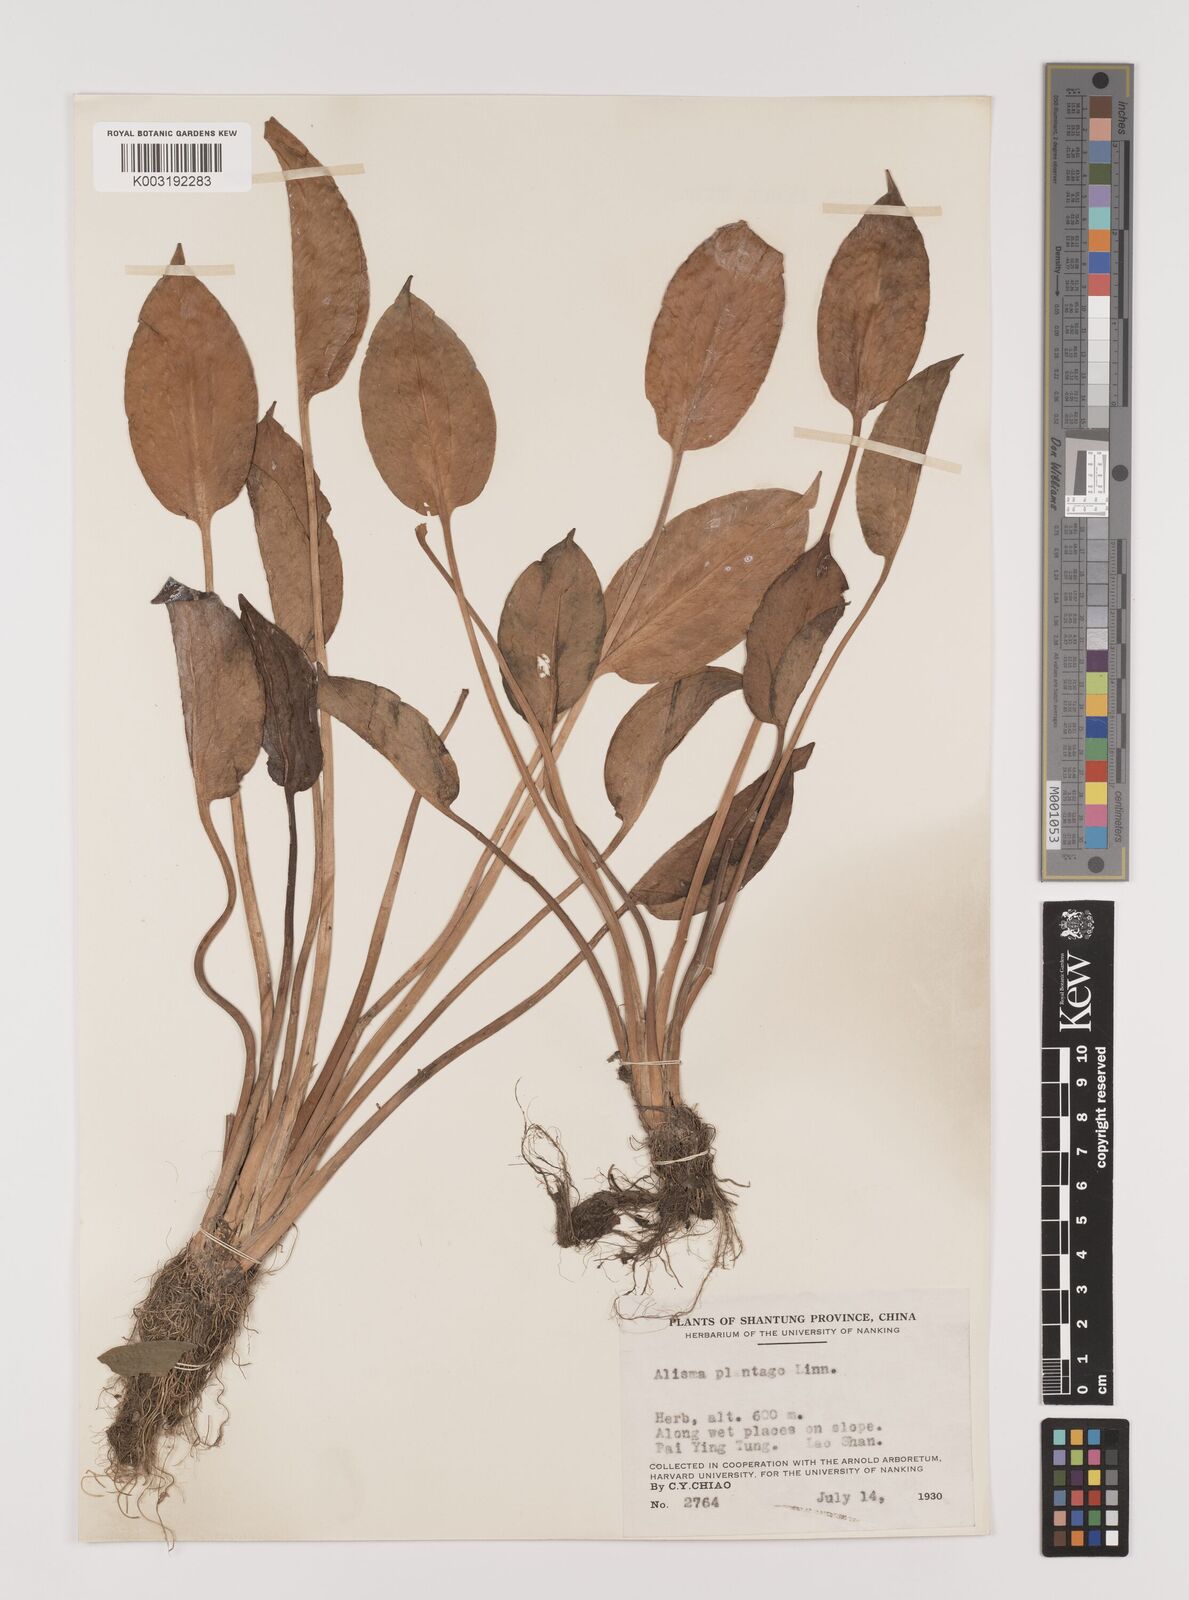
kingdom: Plantae
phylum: Tracheophyta
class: Liliopsida
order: Alismatales
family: Alismataceae
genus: Alisma
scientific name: Alisma plantago-aquatica
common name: Water-plantain
